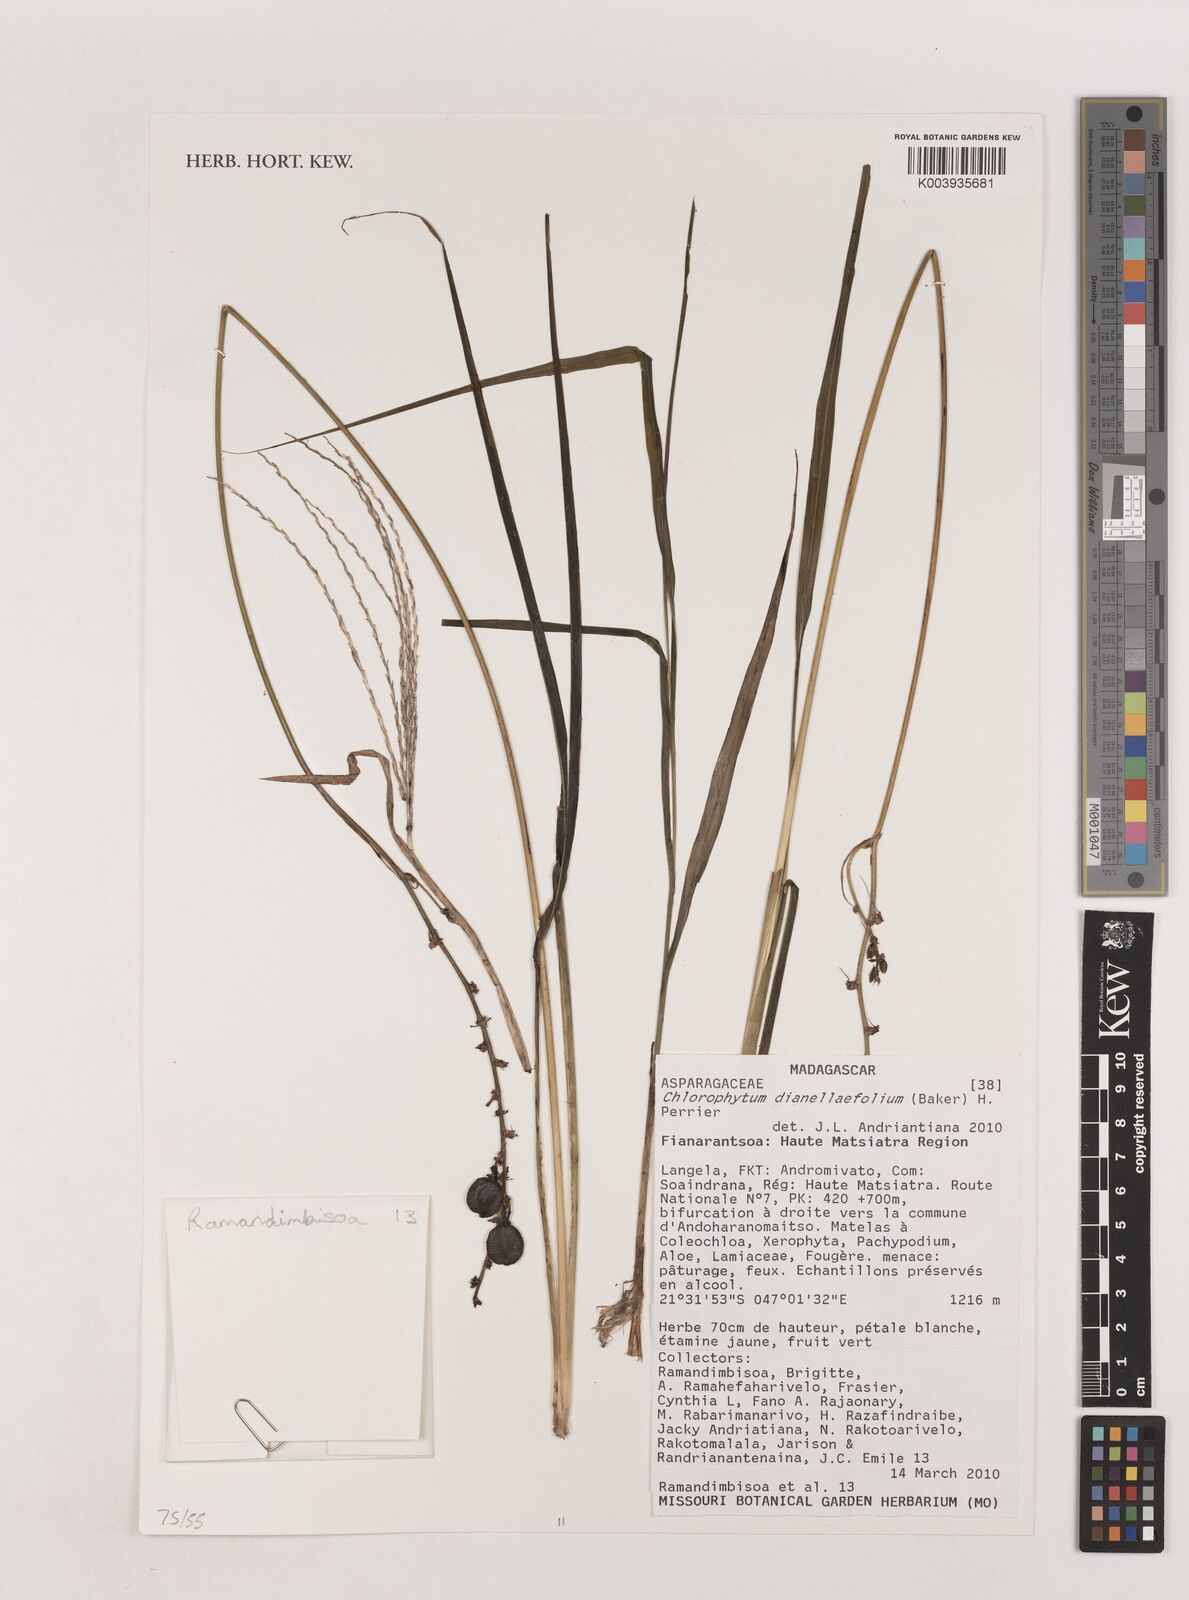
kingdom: Plantae
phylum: Tracheophyta
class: Liliopsida
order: Asparagales
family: Asparagaceae
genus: Chlorophytum
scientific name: Chlorophytum dianellifolium
